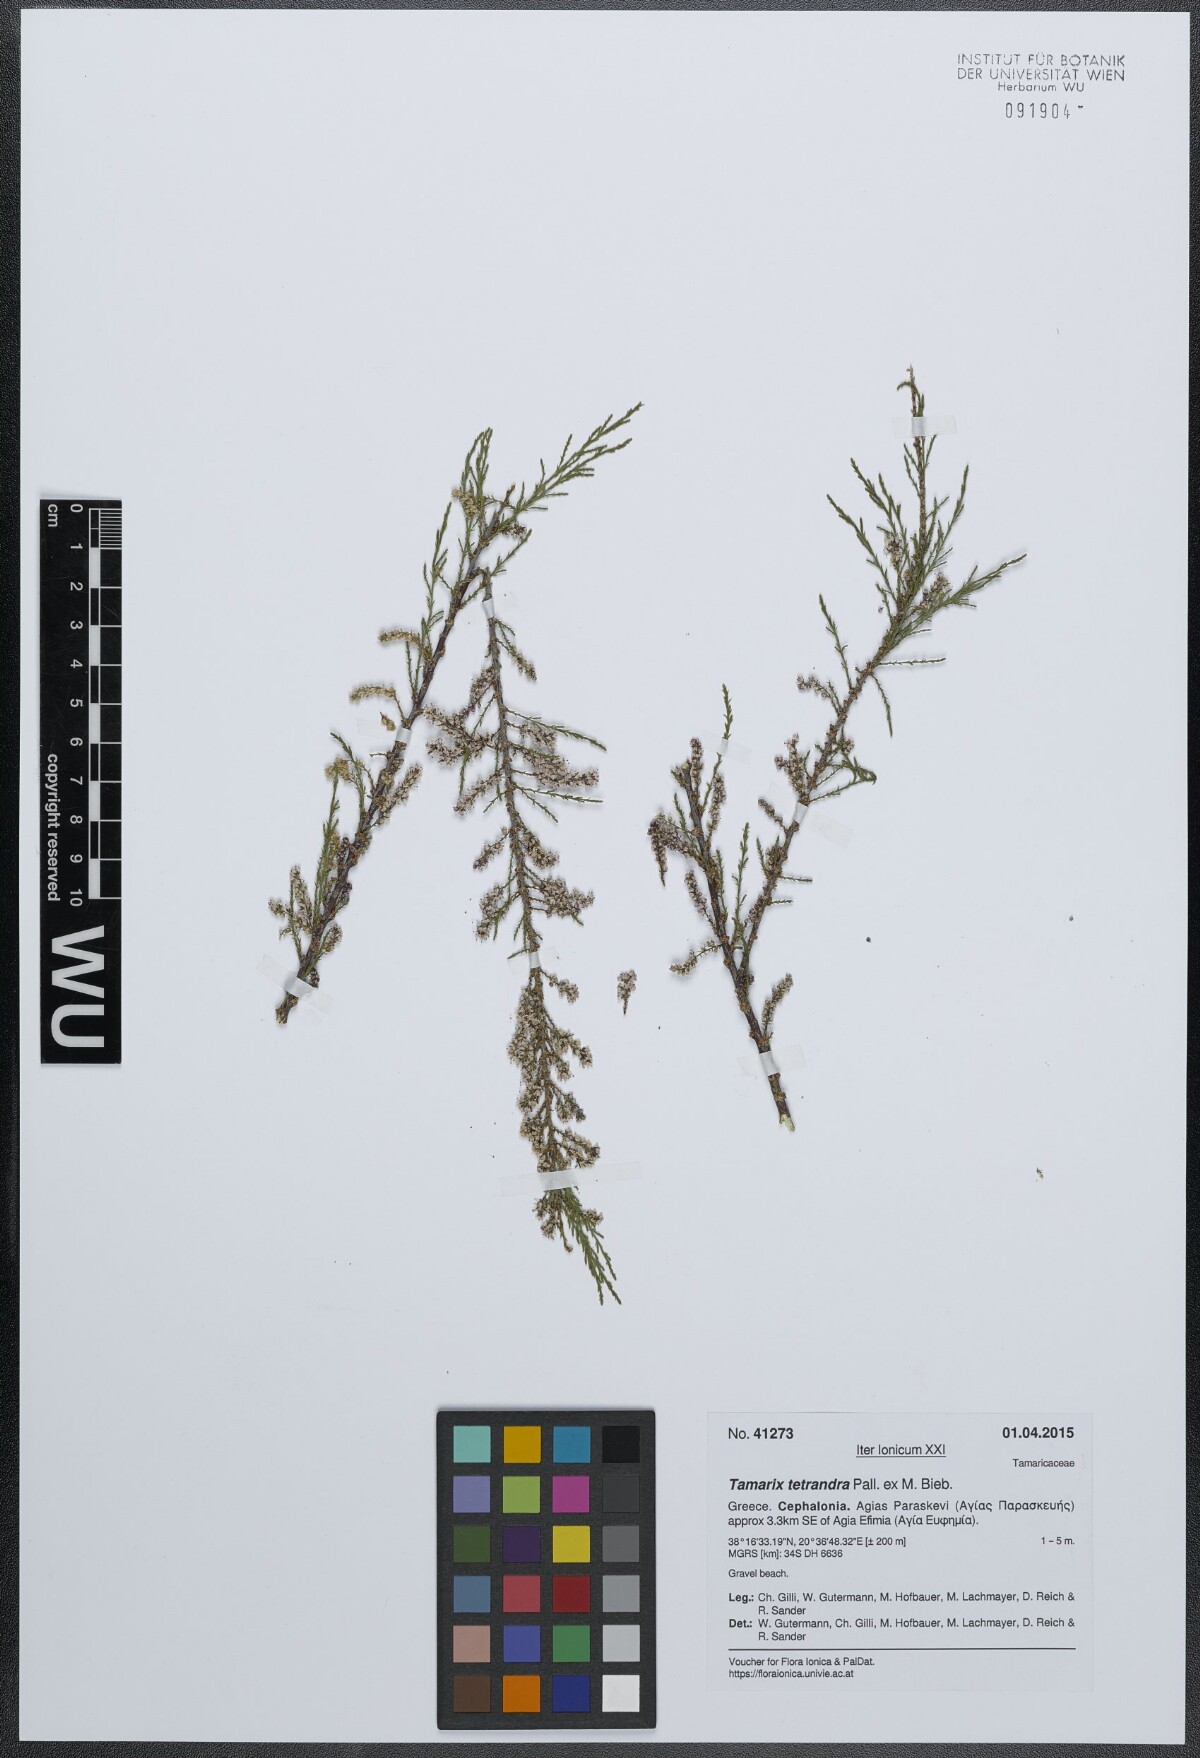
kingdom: Plantae
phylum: Tracheophyta
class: Magnoliopsida
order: Caryophyllales
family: Tamaricaceae
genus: Tamarix
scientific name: Tamarix tetrandra
